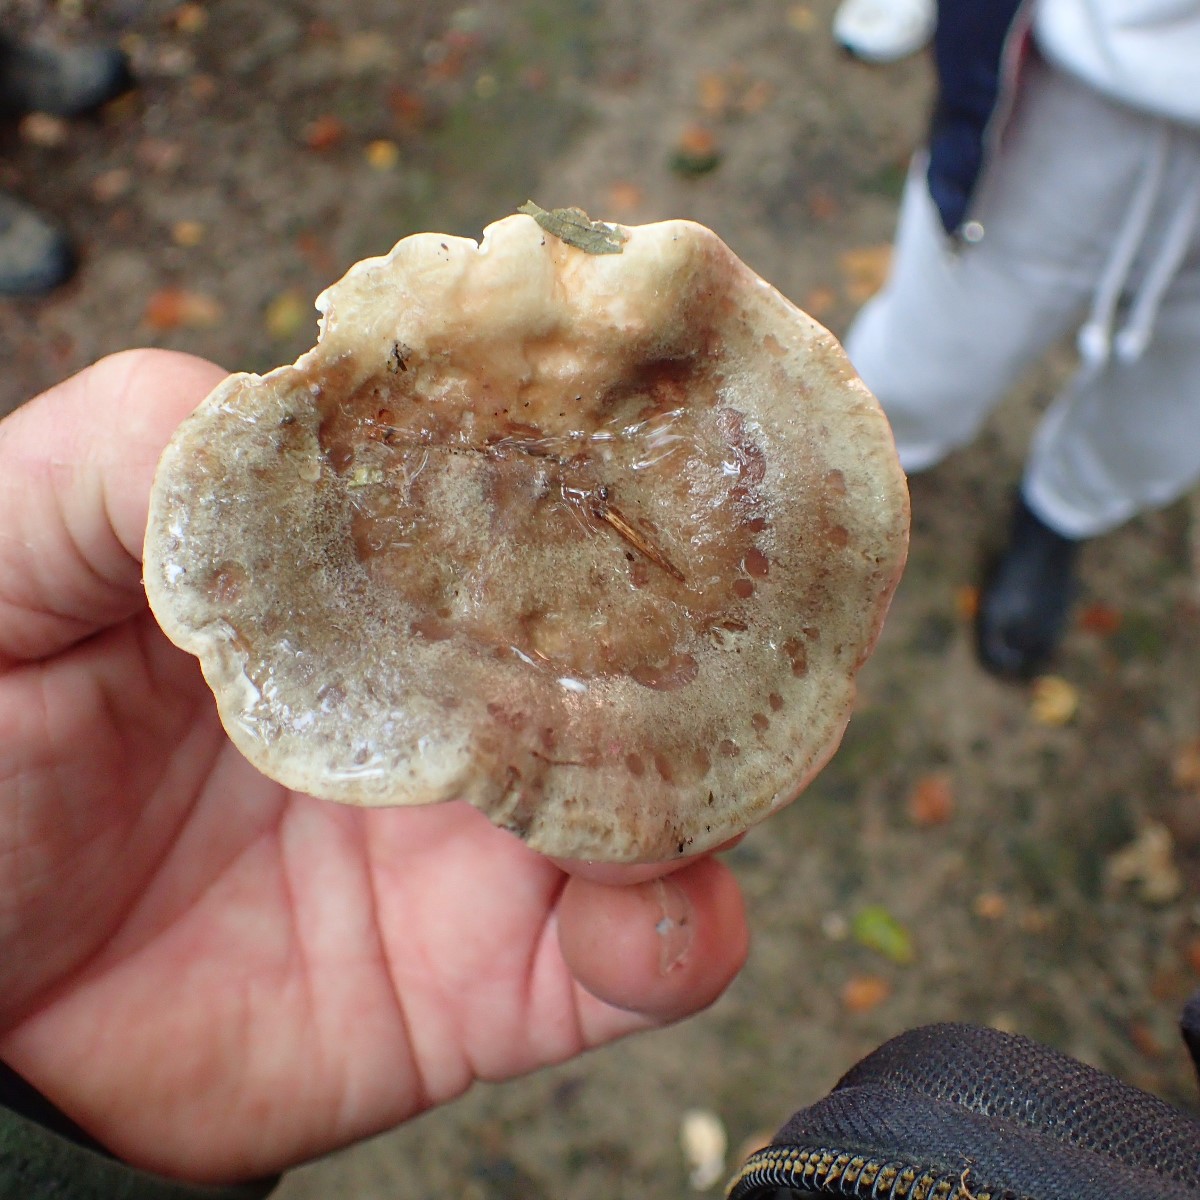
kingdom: Fungi
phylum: Basidiomycota
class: Agaricomycetes
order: Russulales
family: Russulaceae
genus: Lactarius
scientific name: Lactarius blennius
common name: dråbeplettet mælkehat
